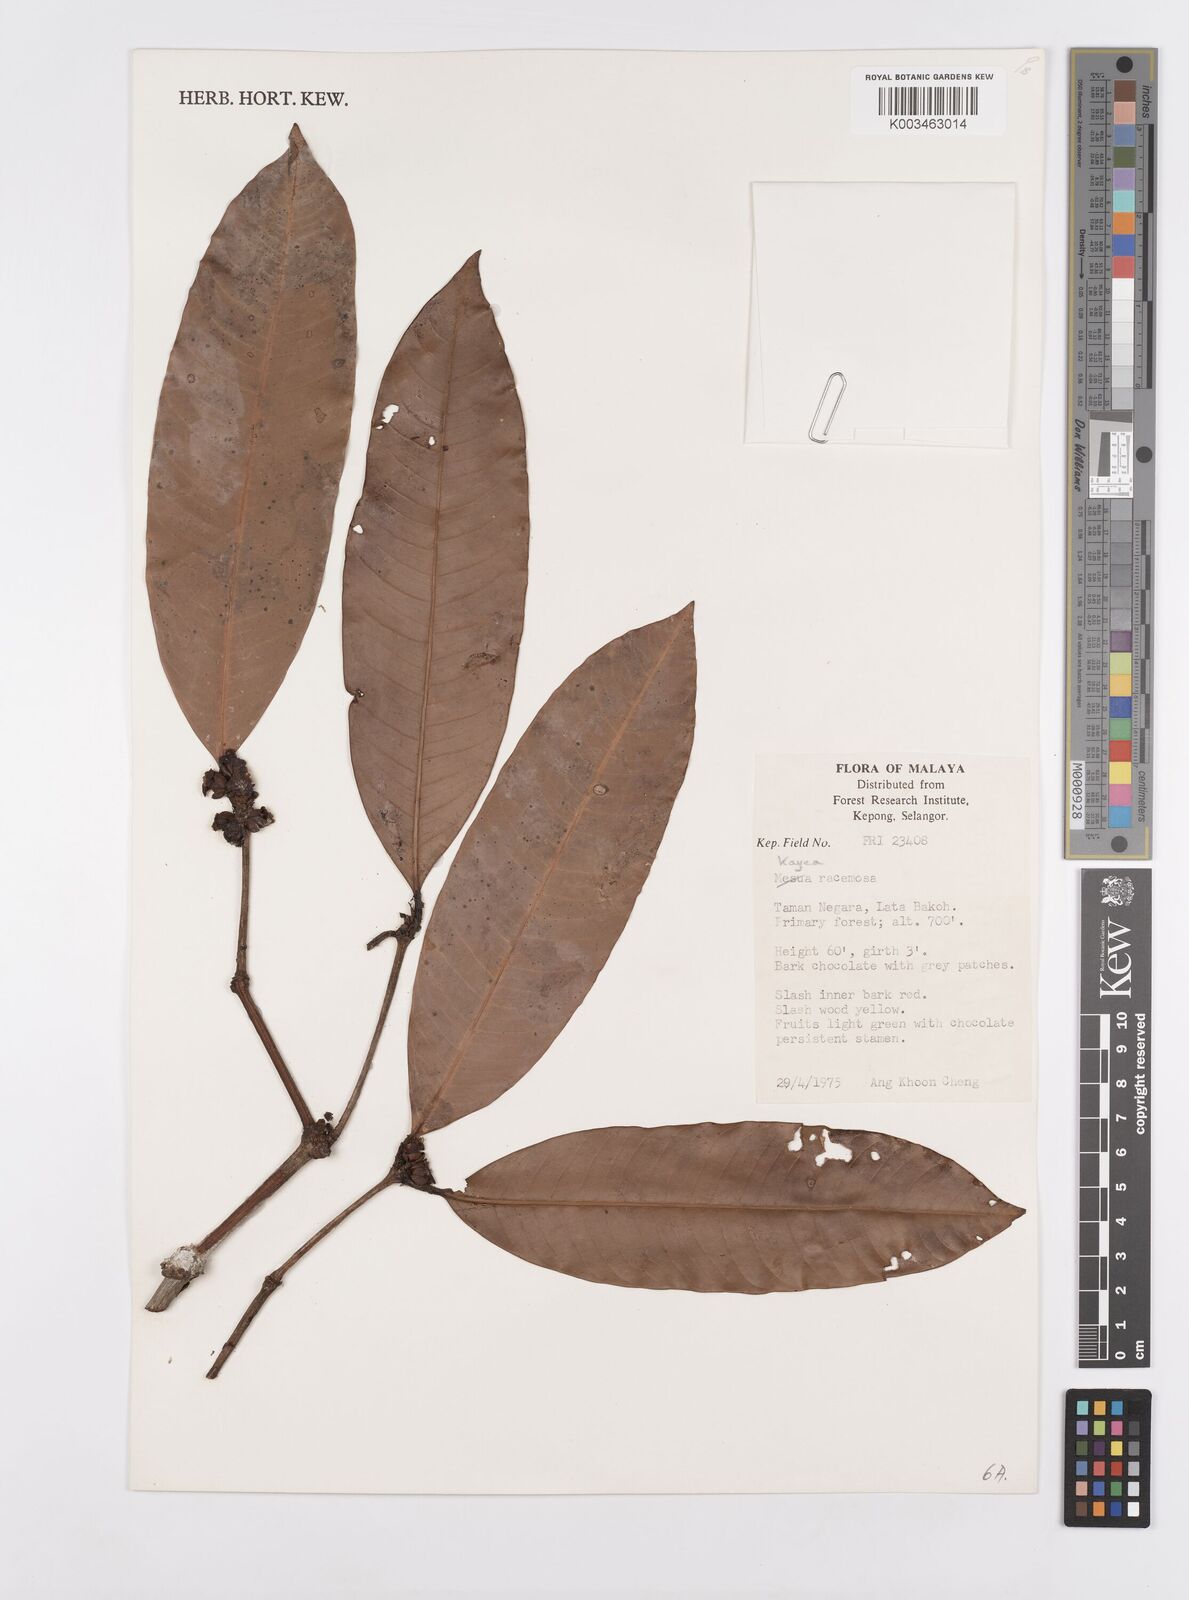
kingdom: Plantae
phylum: Tracheophyta
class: Magnoliopsida
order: Malpighiales
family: Calophyllaceae
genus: Kayea
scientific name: Kayea racemosa
